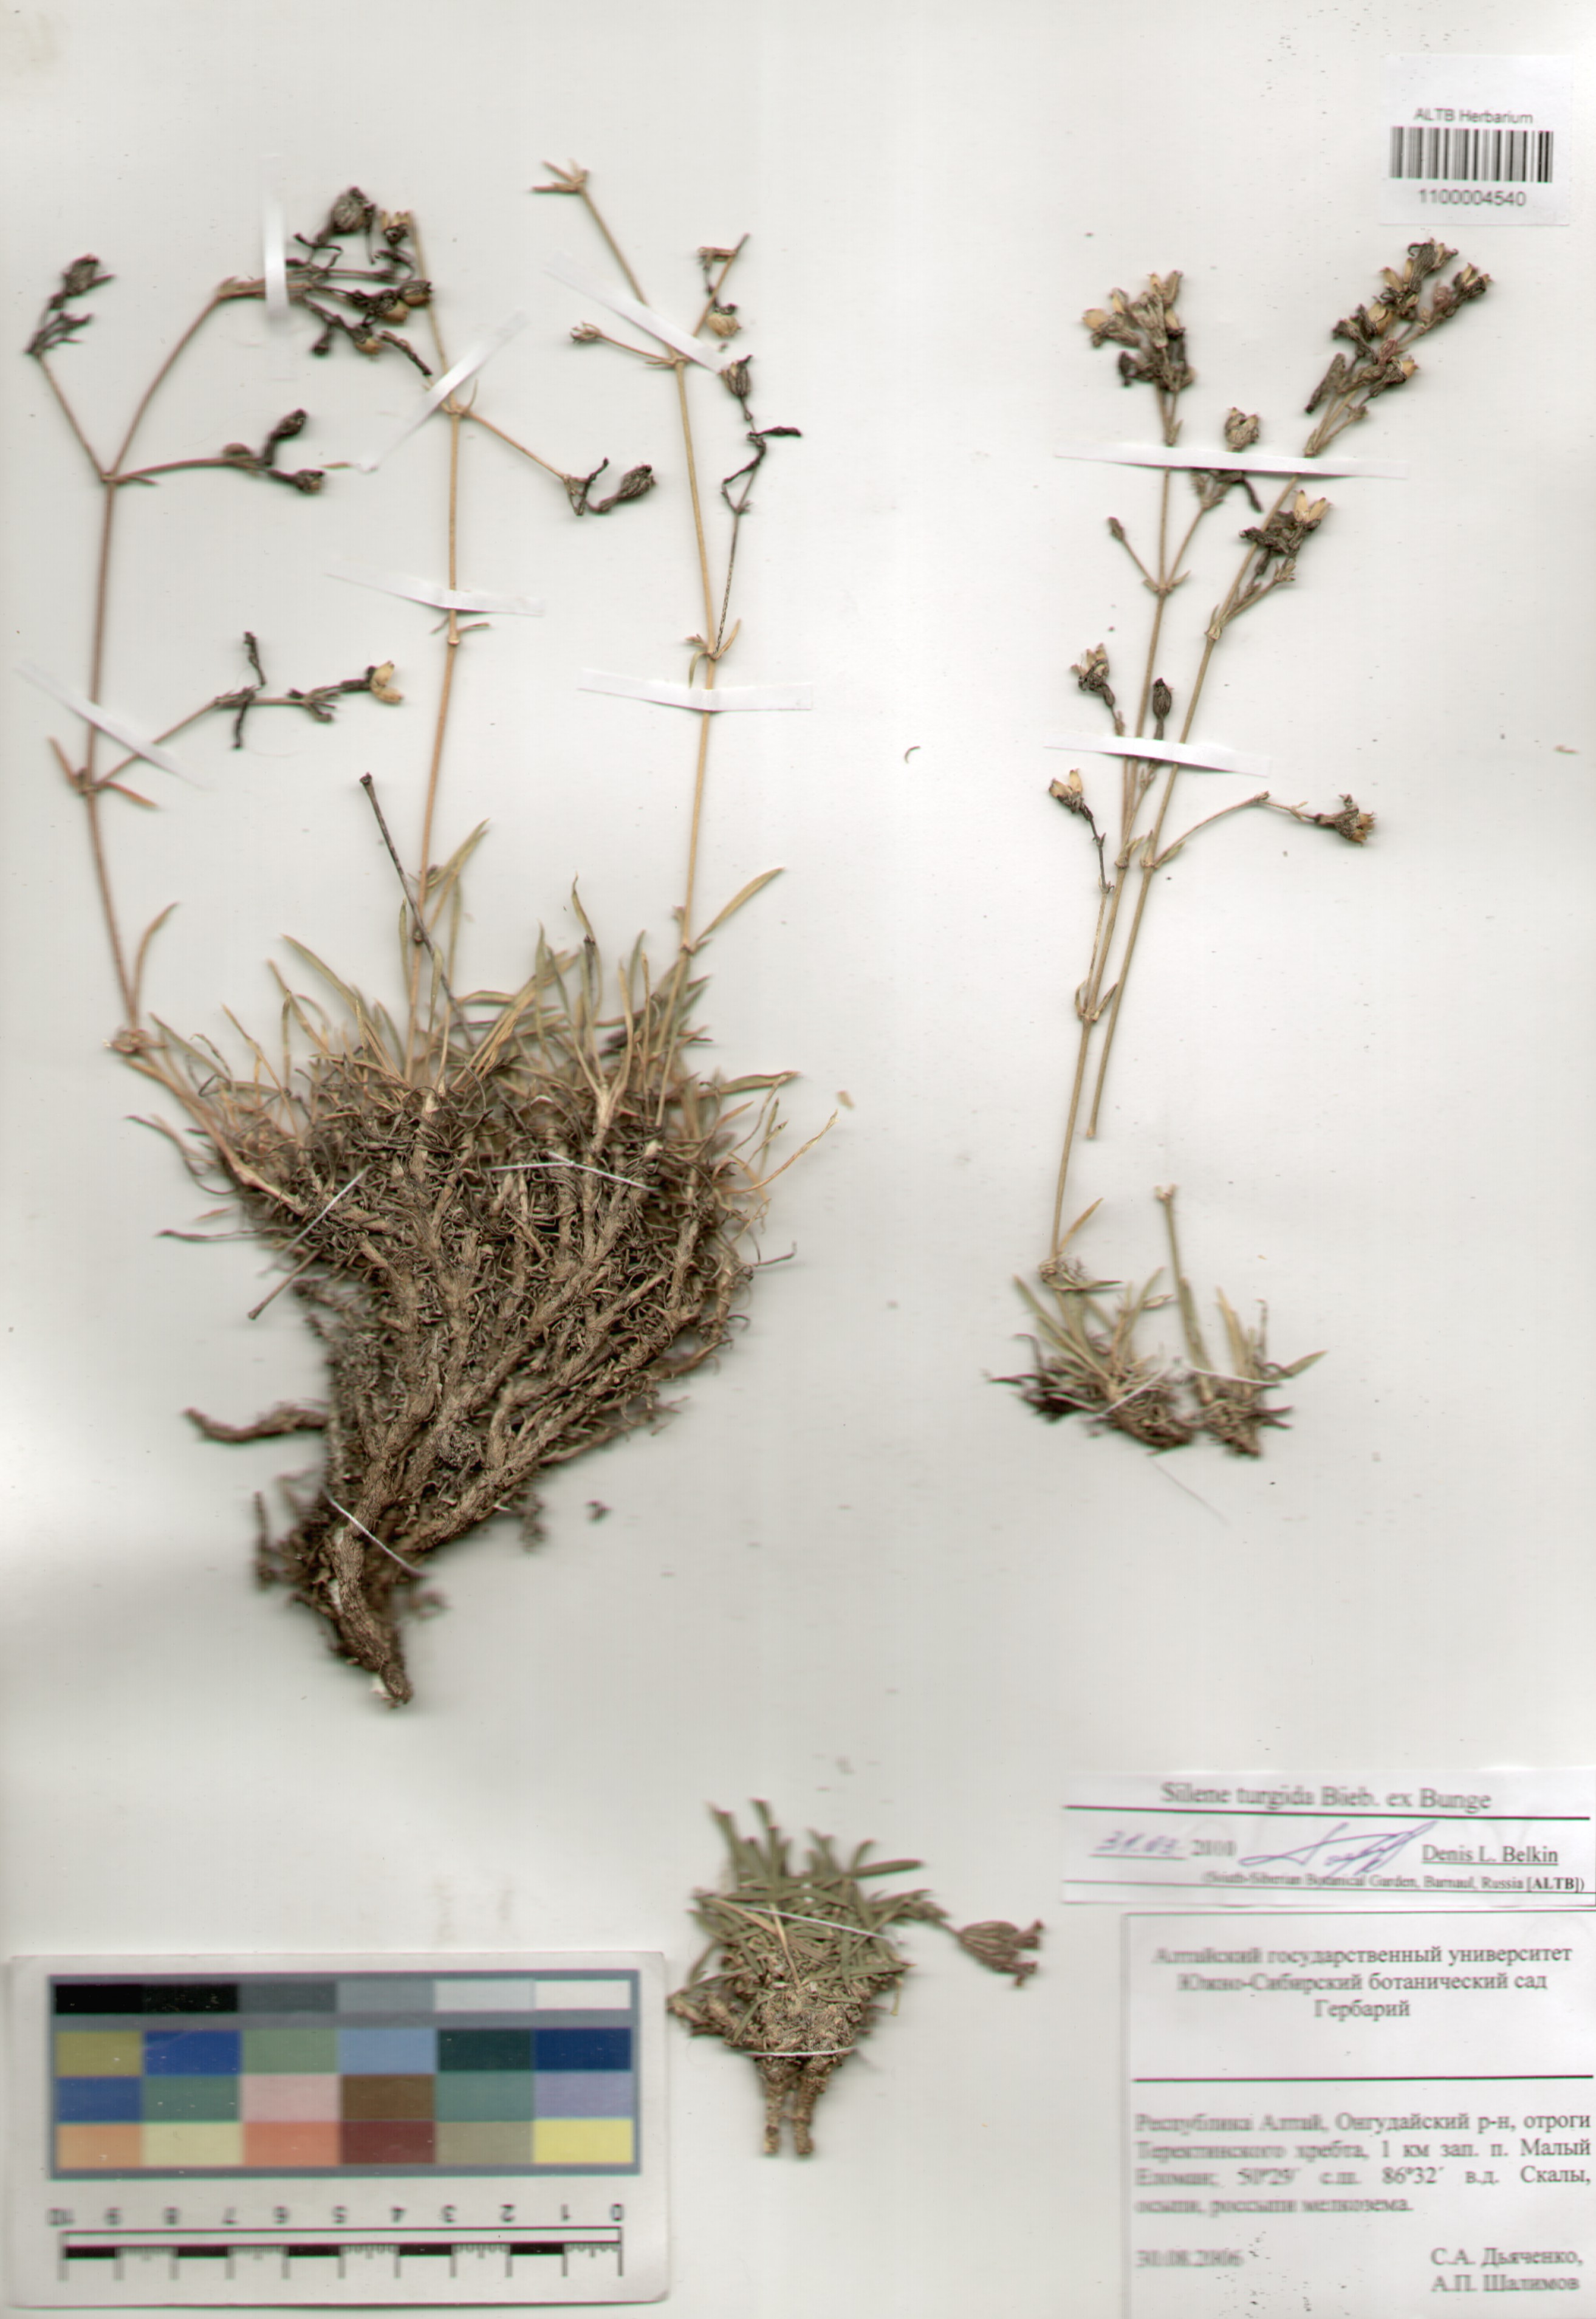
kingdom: Plantae
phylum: Tracheophyta
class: Magnoliopsida
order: Caryophyllales
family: Caryophyllaceae
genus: Silene
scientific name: Silene turgida
